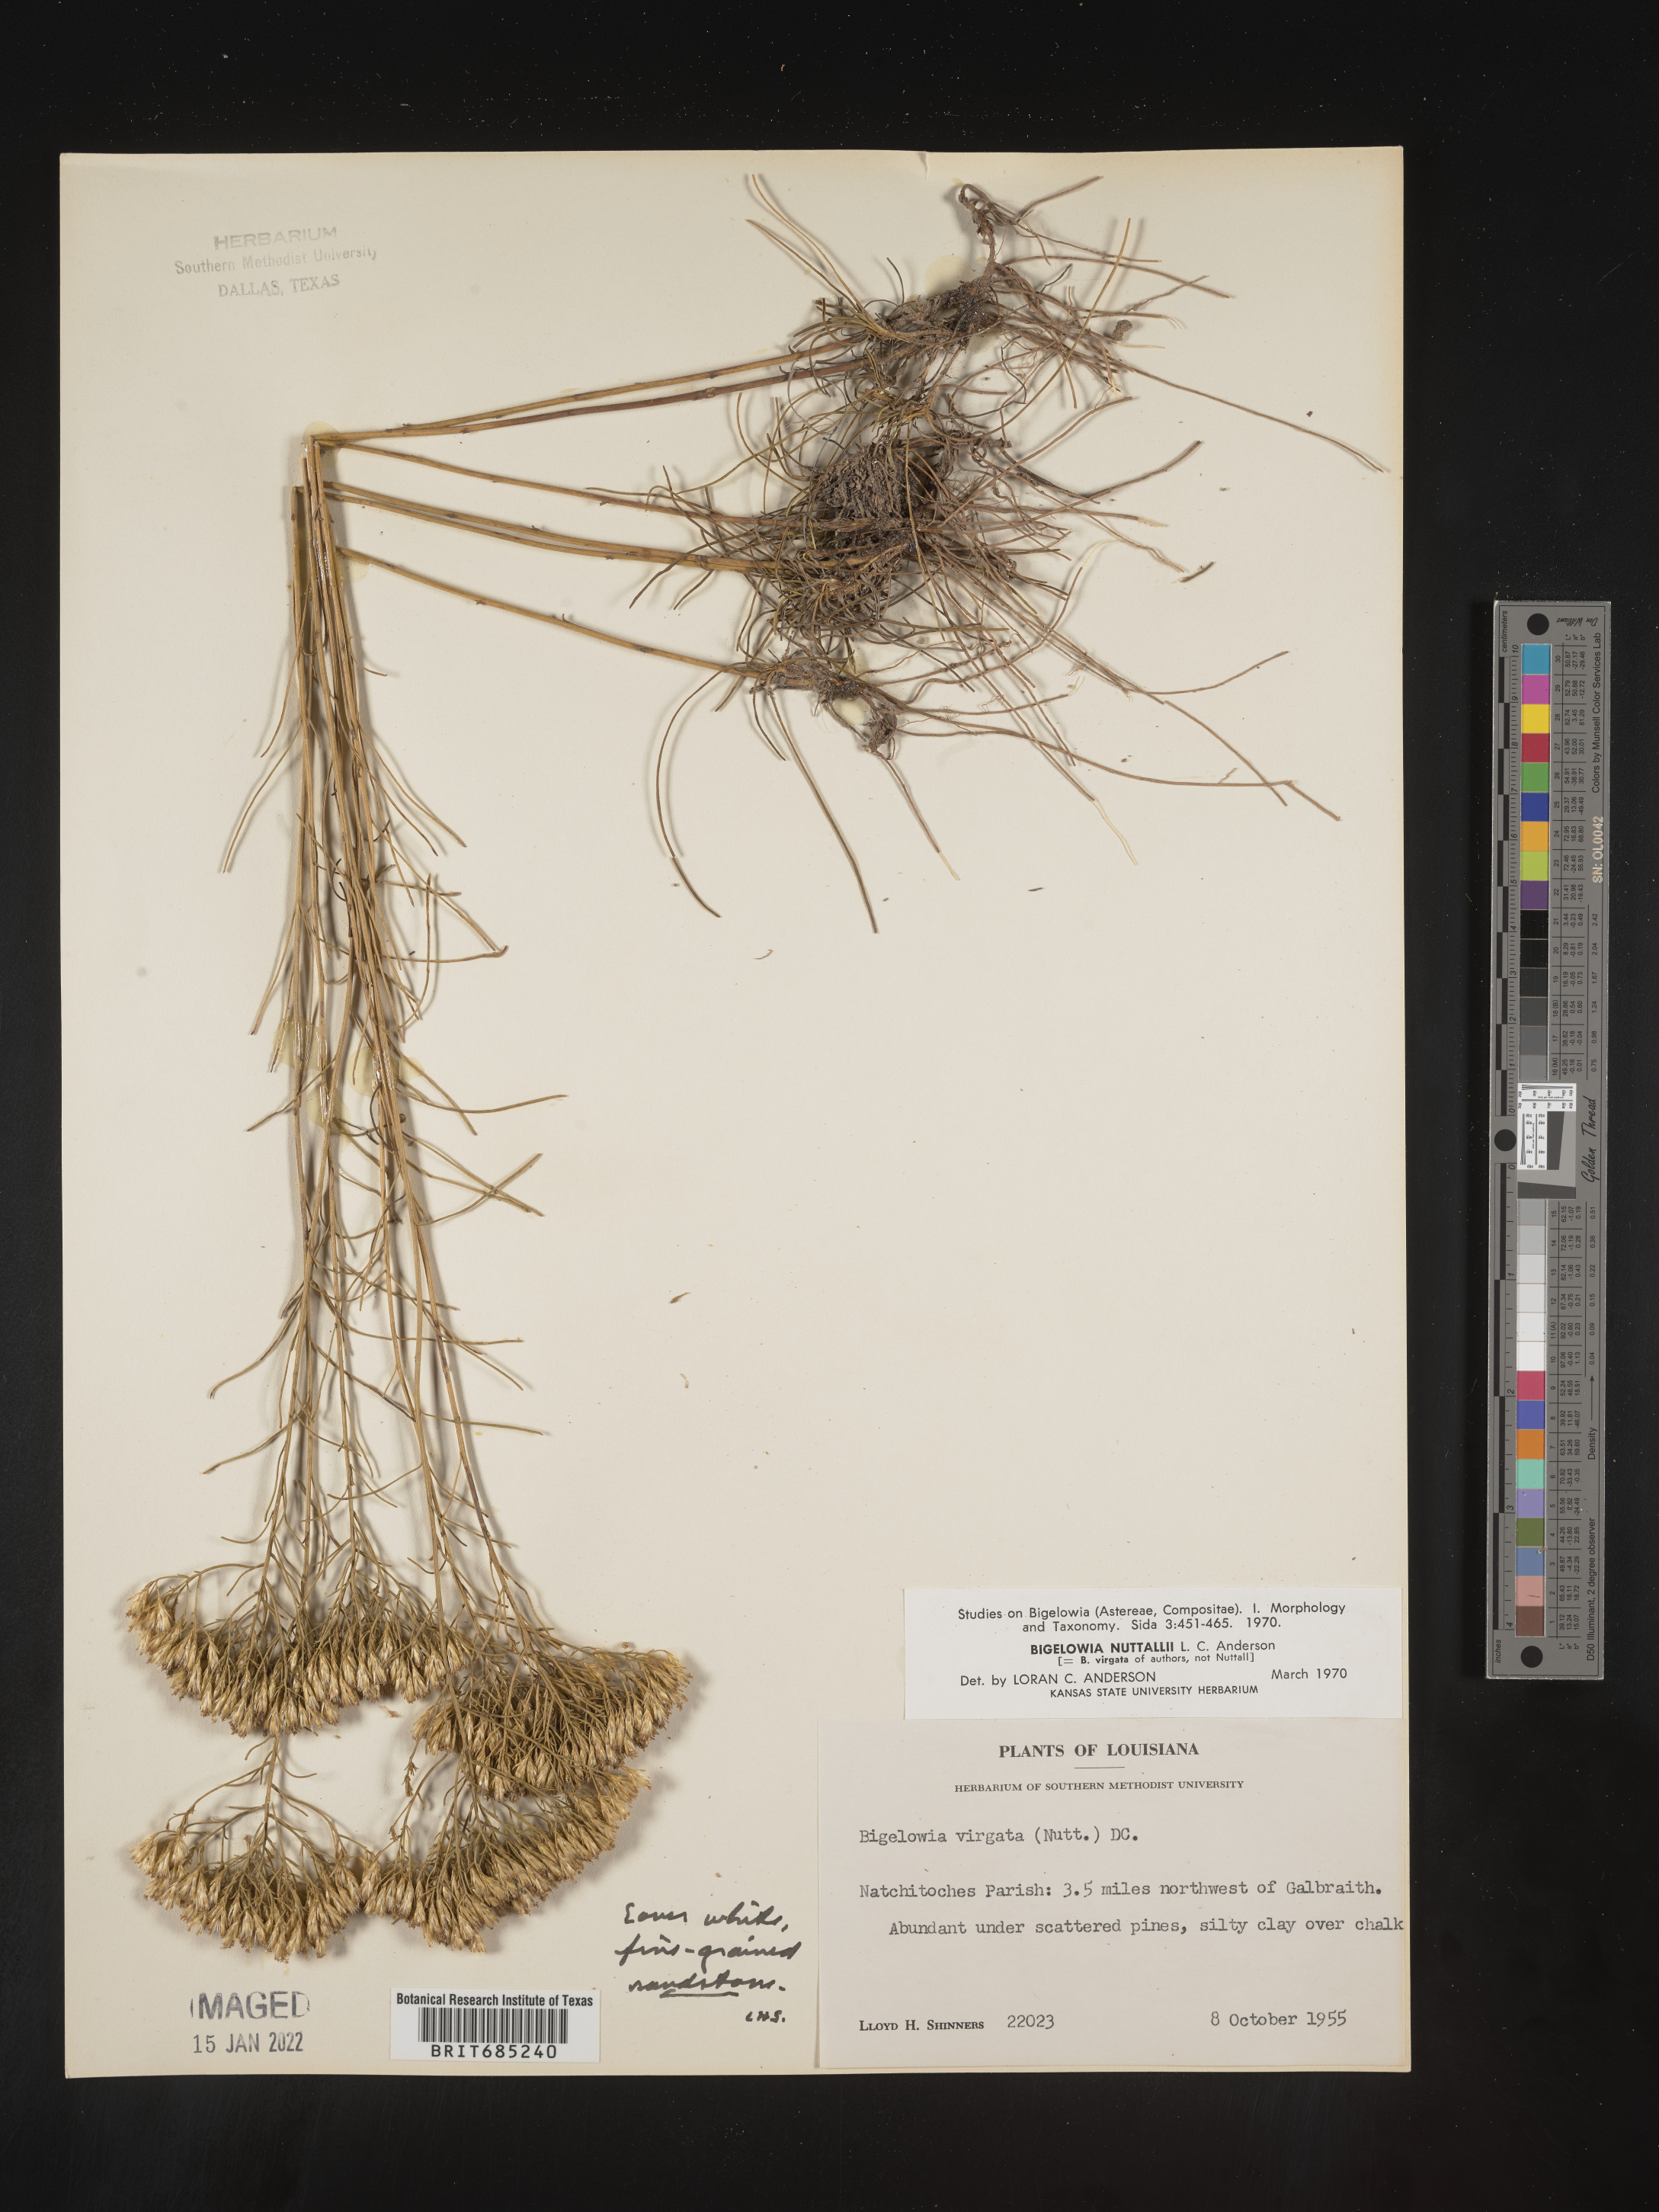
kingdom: Plantae
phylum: Tracheophyta
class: Magnoliopsida
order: Asterales
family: Asteraceae
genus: Bigelowia
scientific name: Bigelowia nuttallii
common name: Nuttall's rayless-goldenrod
